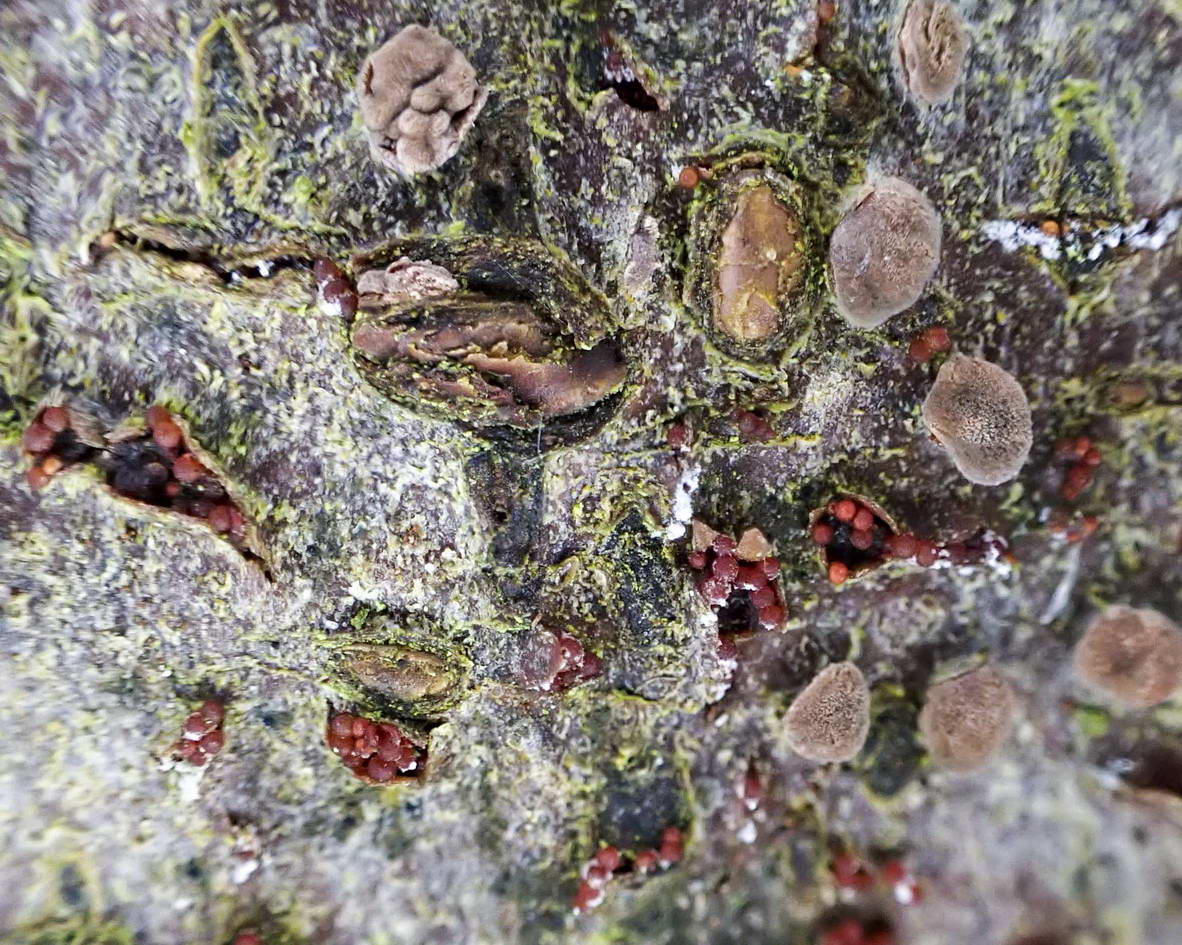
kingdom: Fungi
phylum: Ascomycota
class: Sordariomycetes
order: Hypocreales
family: Nectriaceae
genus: Neonectria
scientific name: Neonectria coccinea
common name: bøgebark-cinnobersvamp
